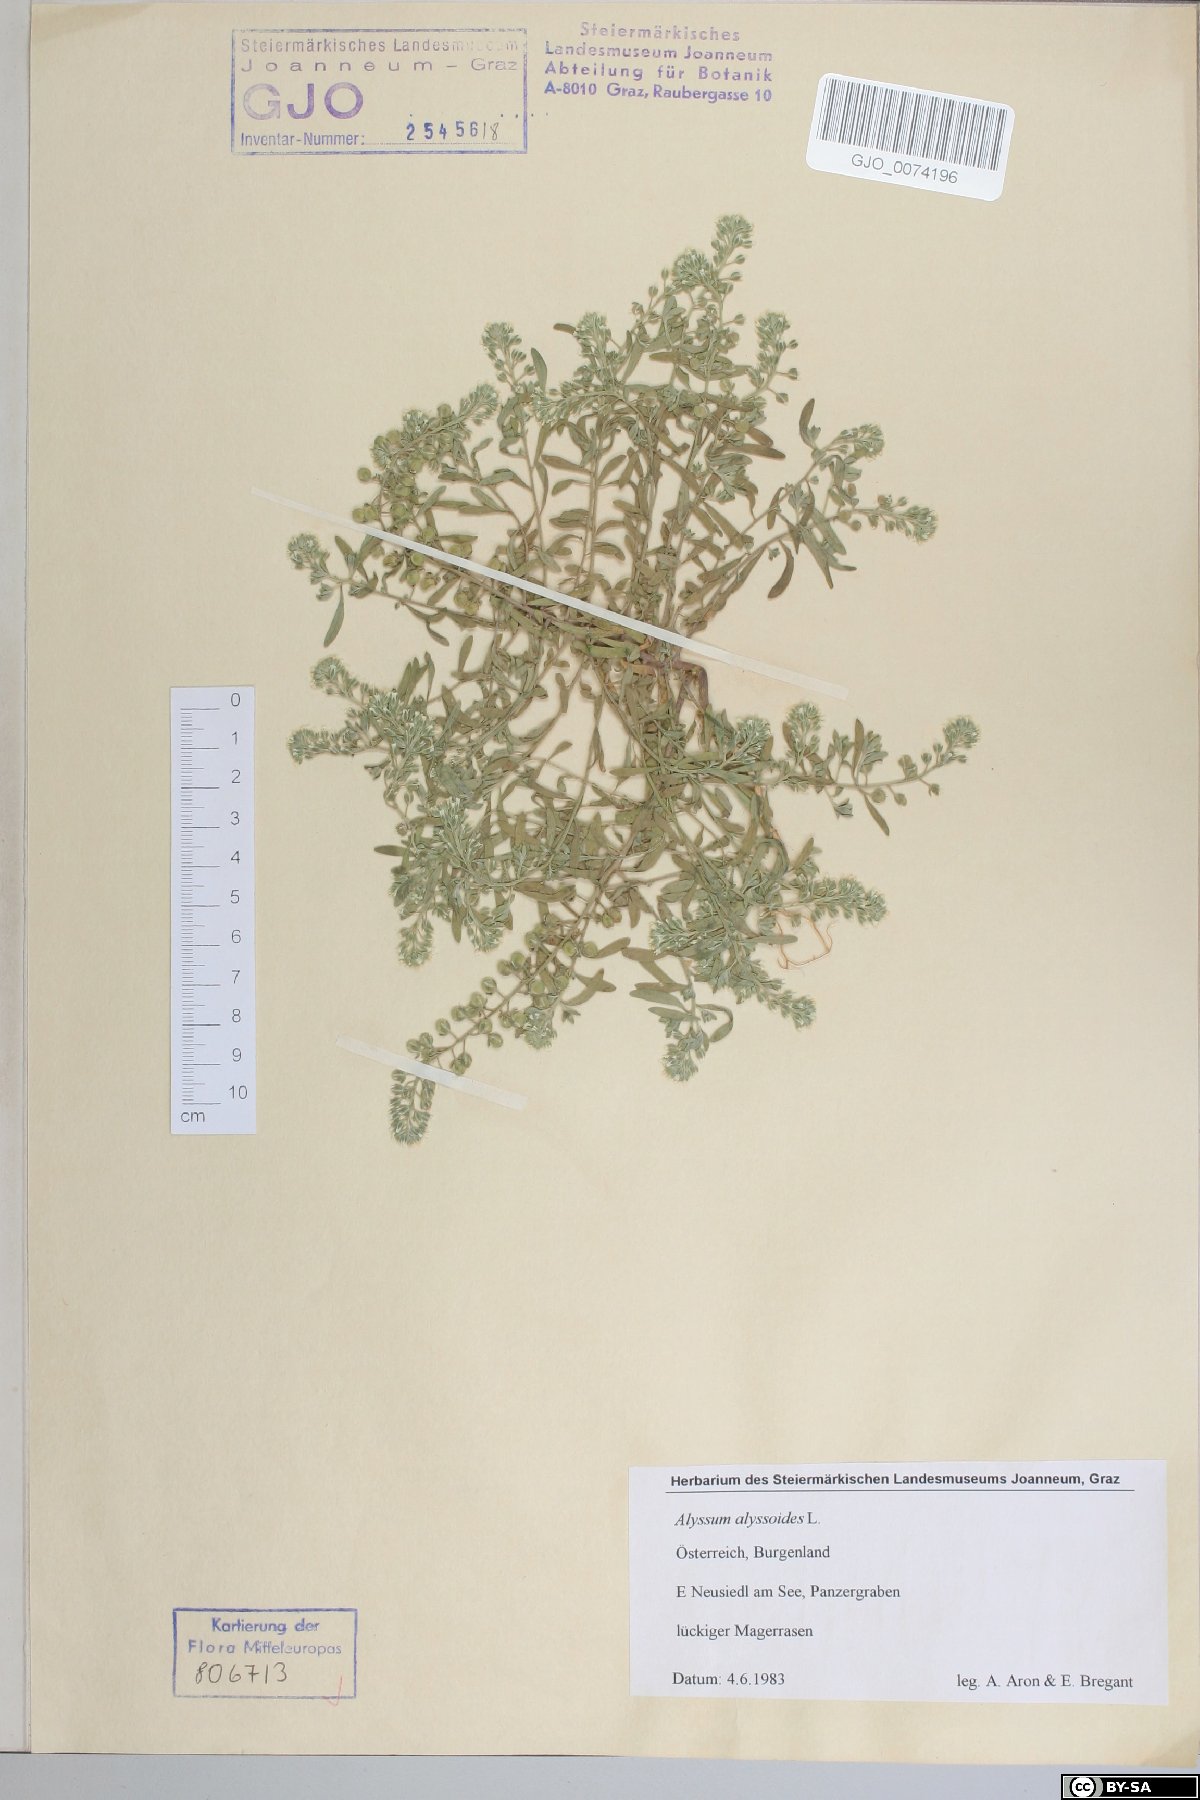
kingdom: Plantae
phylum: Tracheophyta
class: Magnoliopsida
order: Brassicales
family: Brassicaceae
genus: Alyssum
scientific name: Alyssum alyssoides
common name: Small alison
